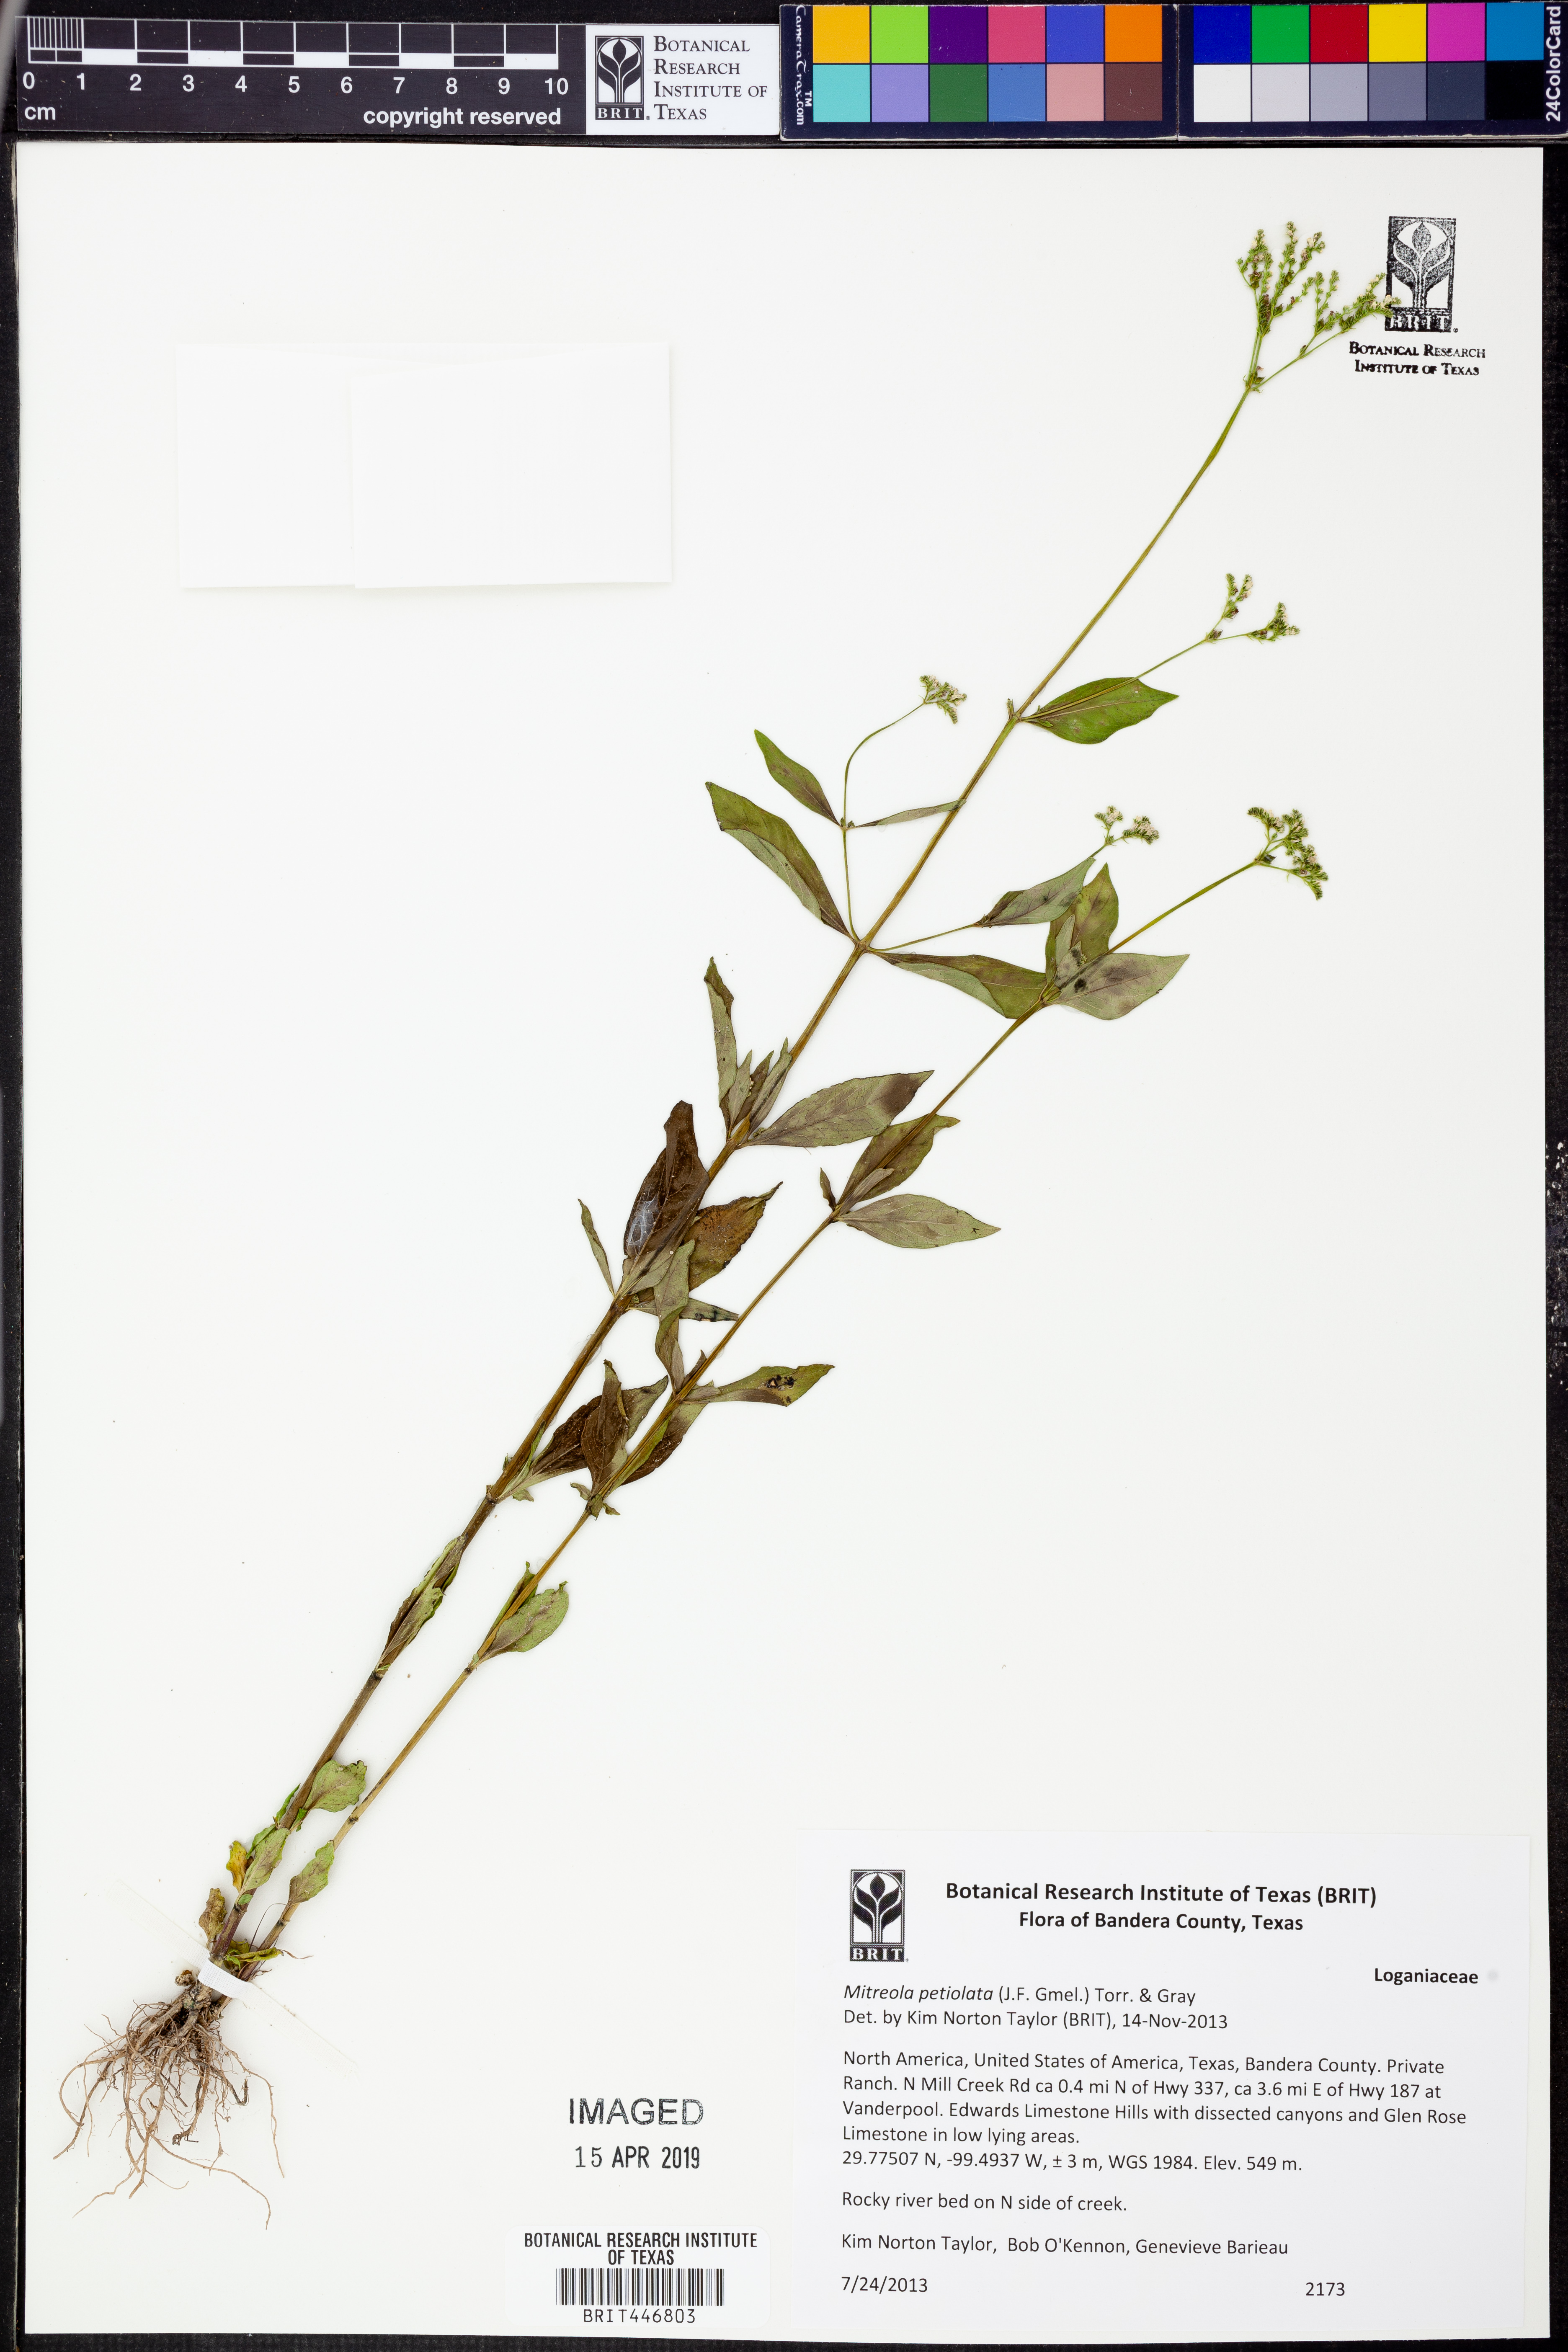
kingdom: Plantae
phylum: Tracheophyta
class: Magnoliopsida
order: Gentianales
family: Loganiaceae
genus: Mitreola
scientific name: Mitreola petiolata
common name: Lax hornpod
